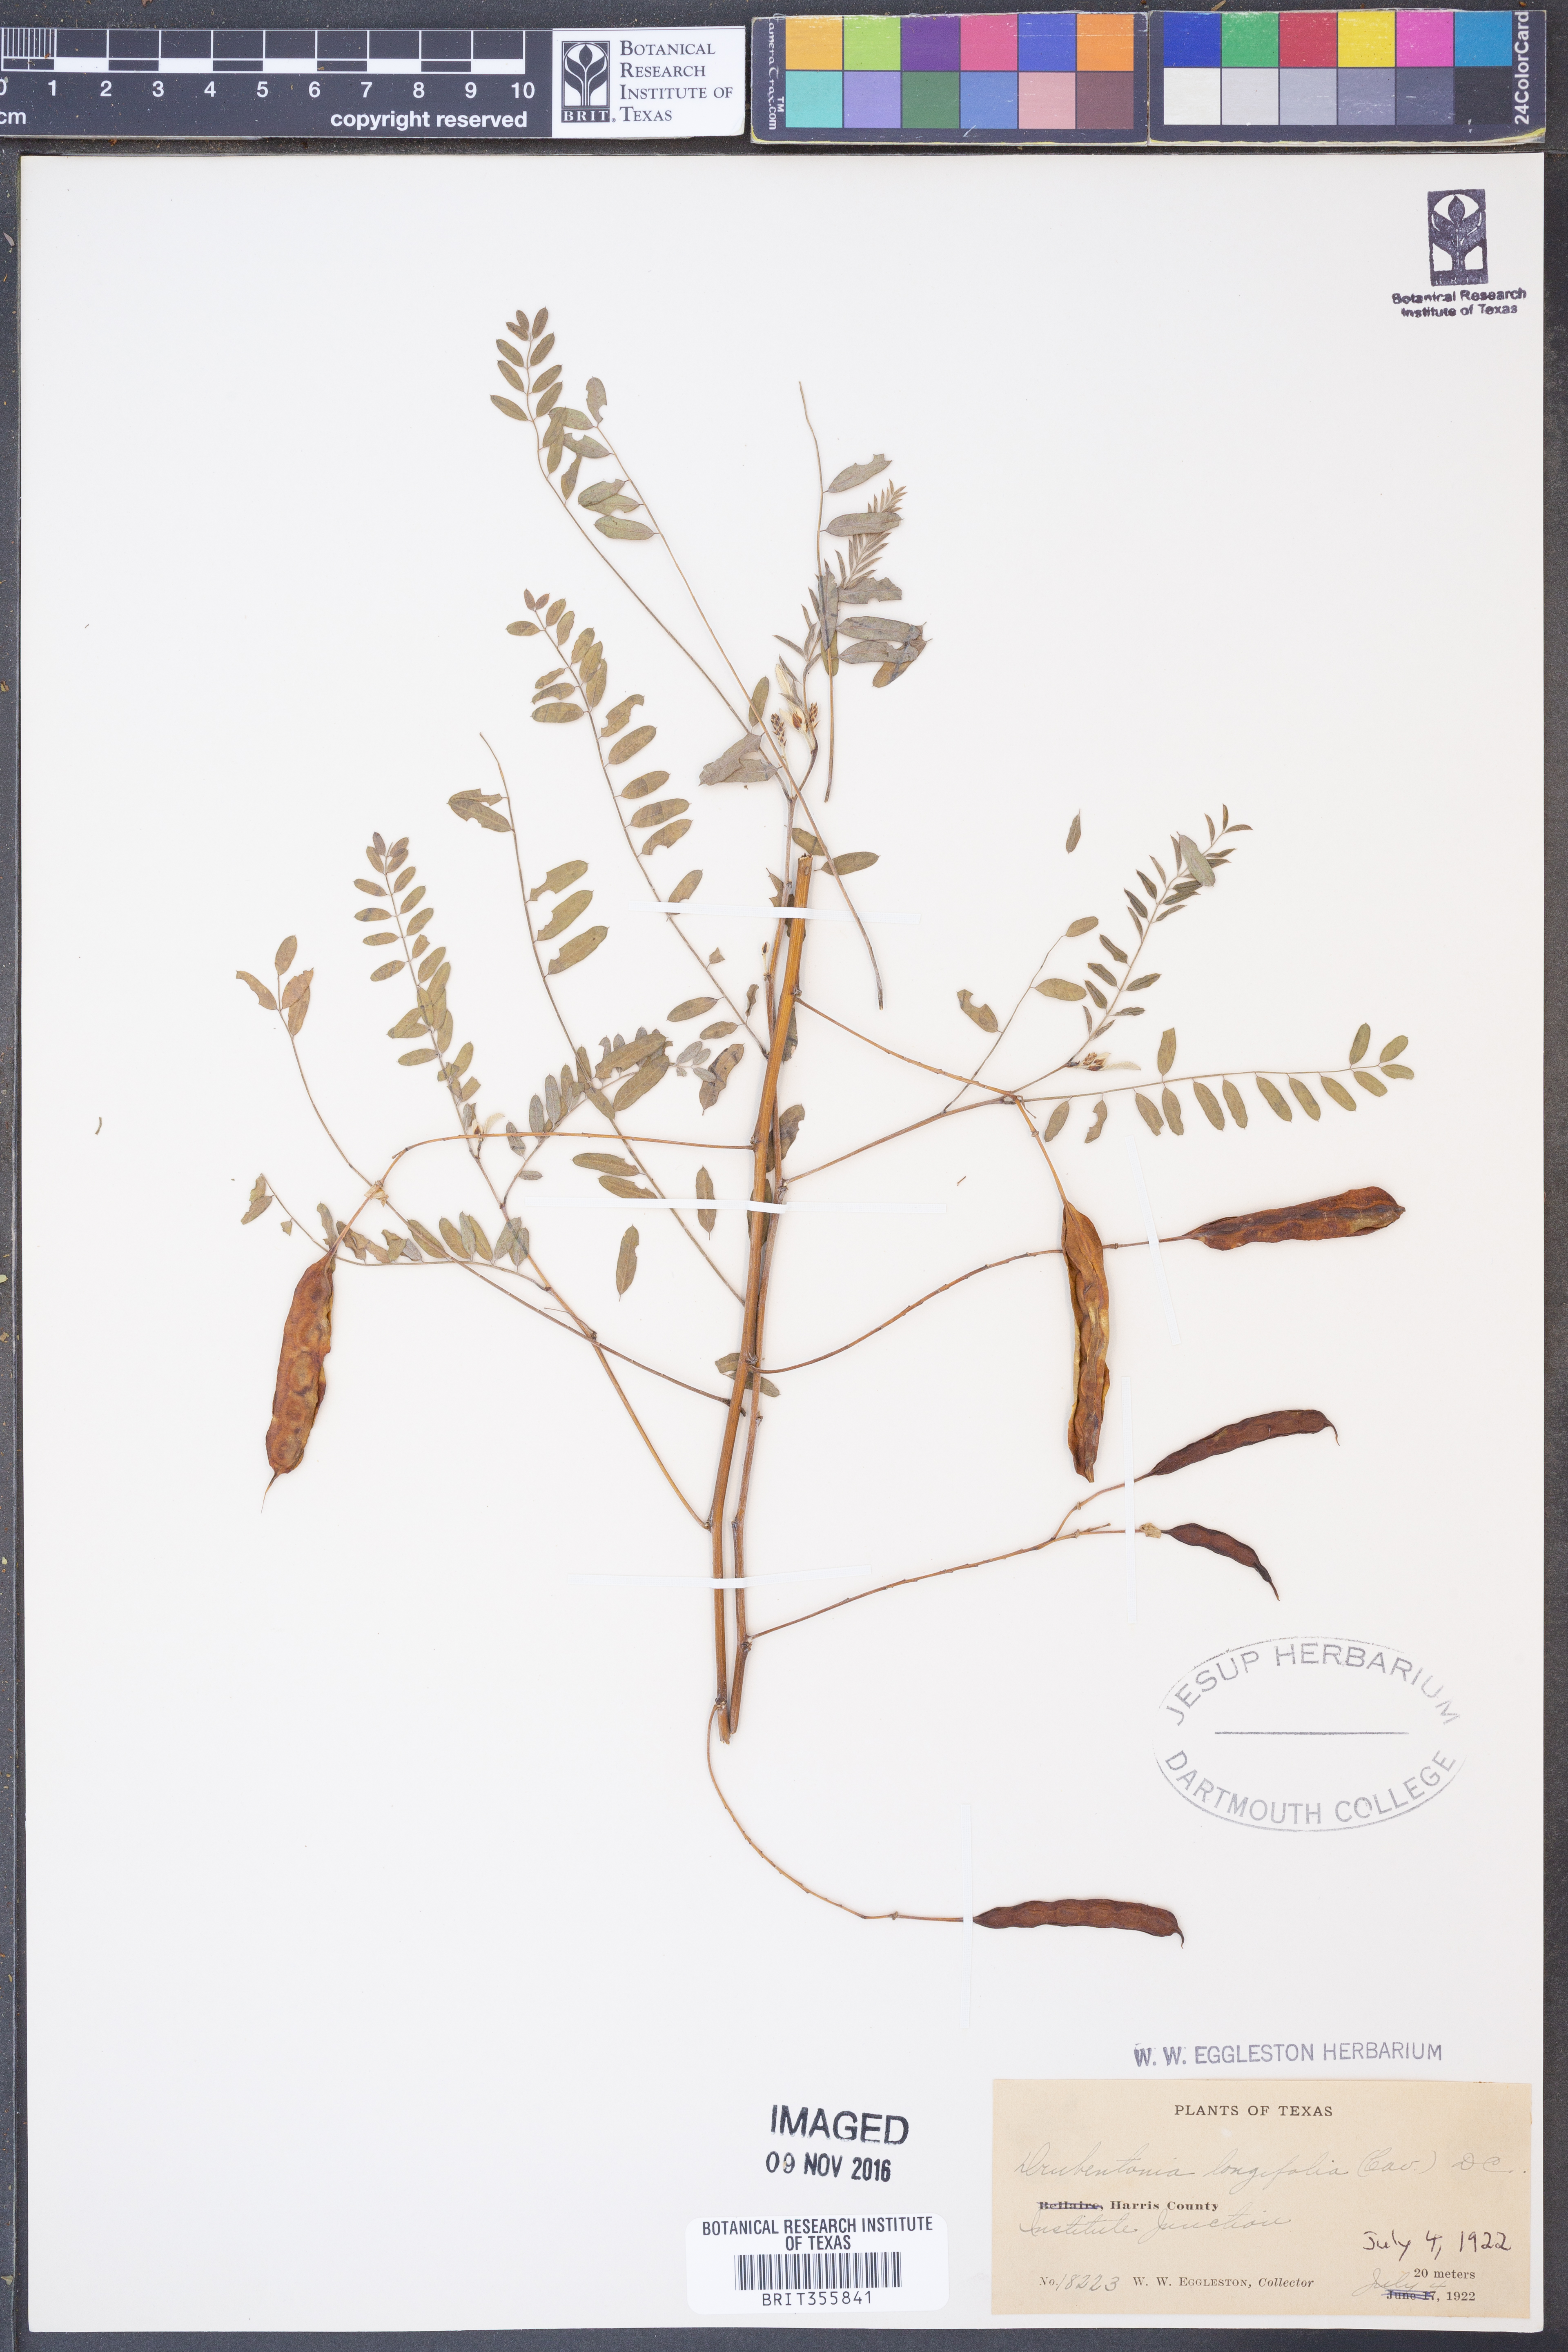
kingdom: Plantae
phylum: Tracheophyta
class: Magnoliopsida
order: Fabales
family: Fabaceae
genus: Sesbania
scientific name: Sesbania longifolia
